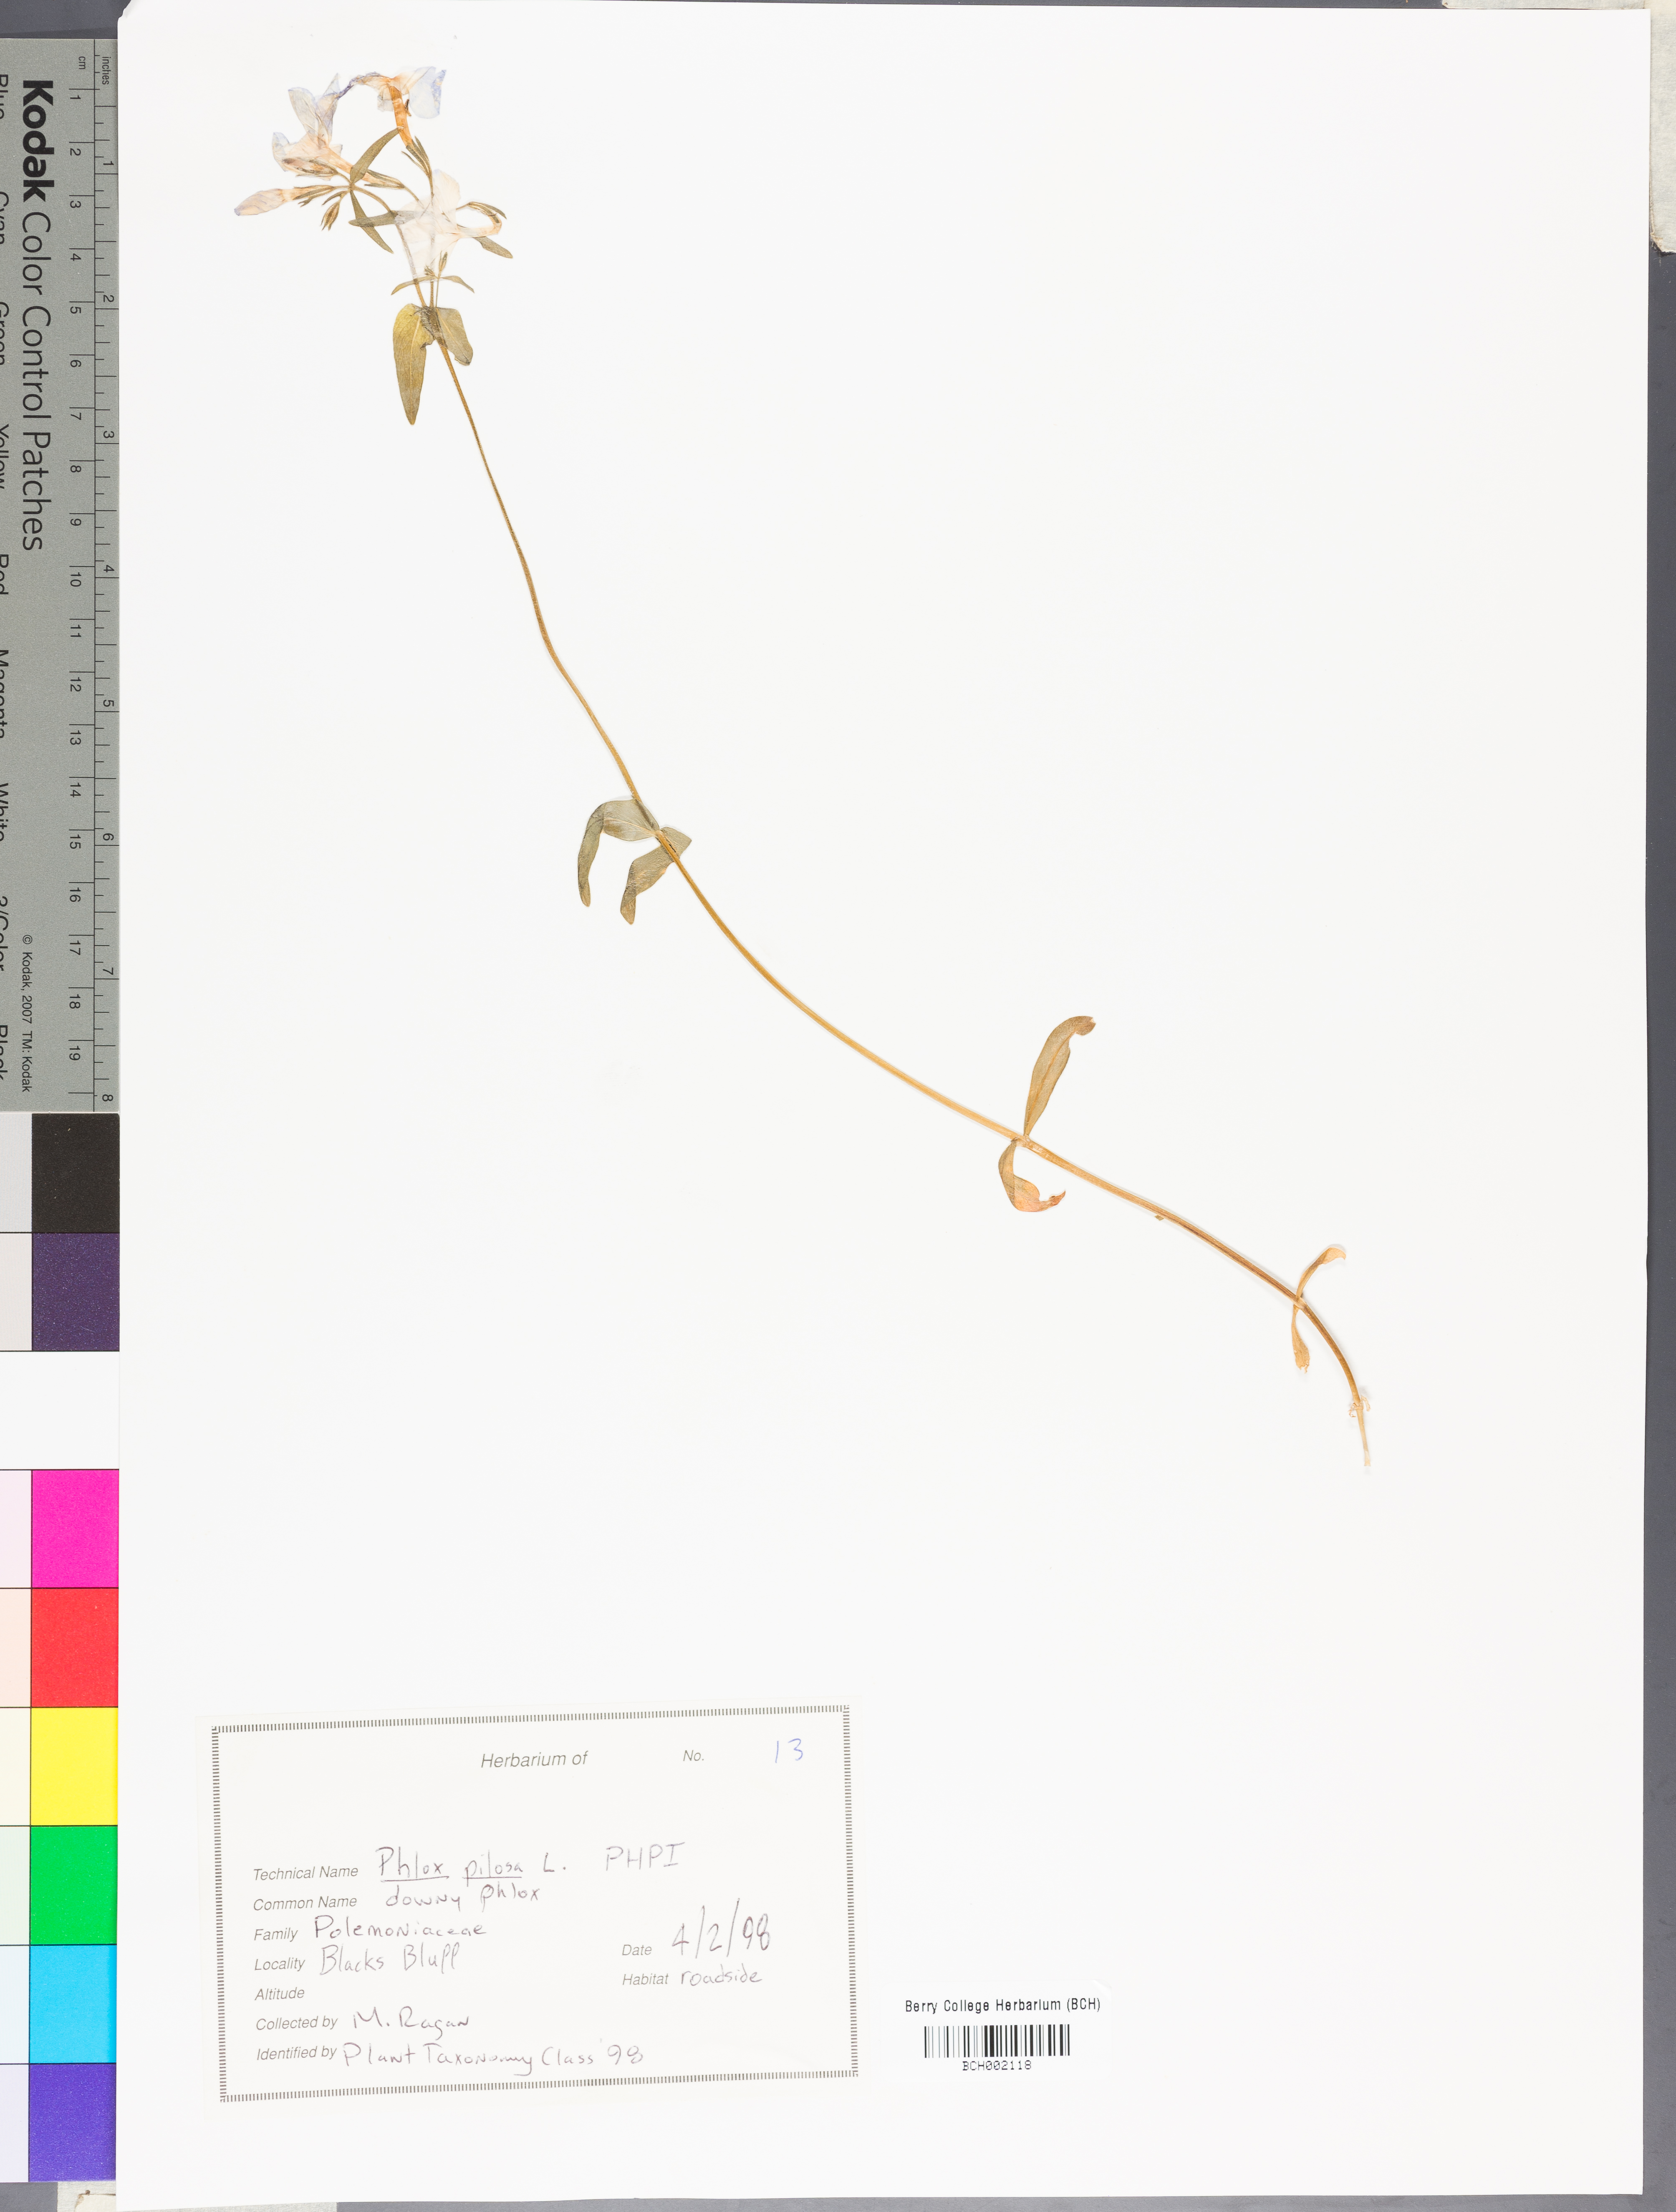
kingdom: Plantae
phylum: Tracheophyta
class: Magnoliopsida
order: Ericales
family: Polemoniaceae
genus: Phlox
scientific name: Phlox pilosa
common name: Prairie phlox
